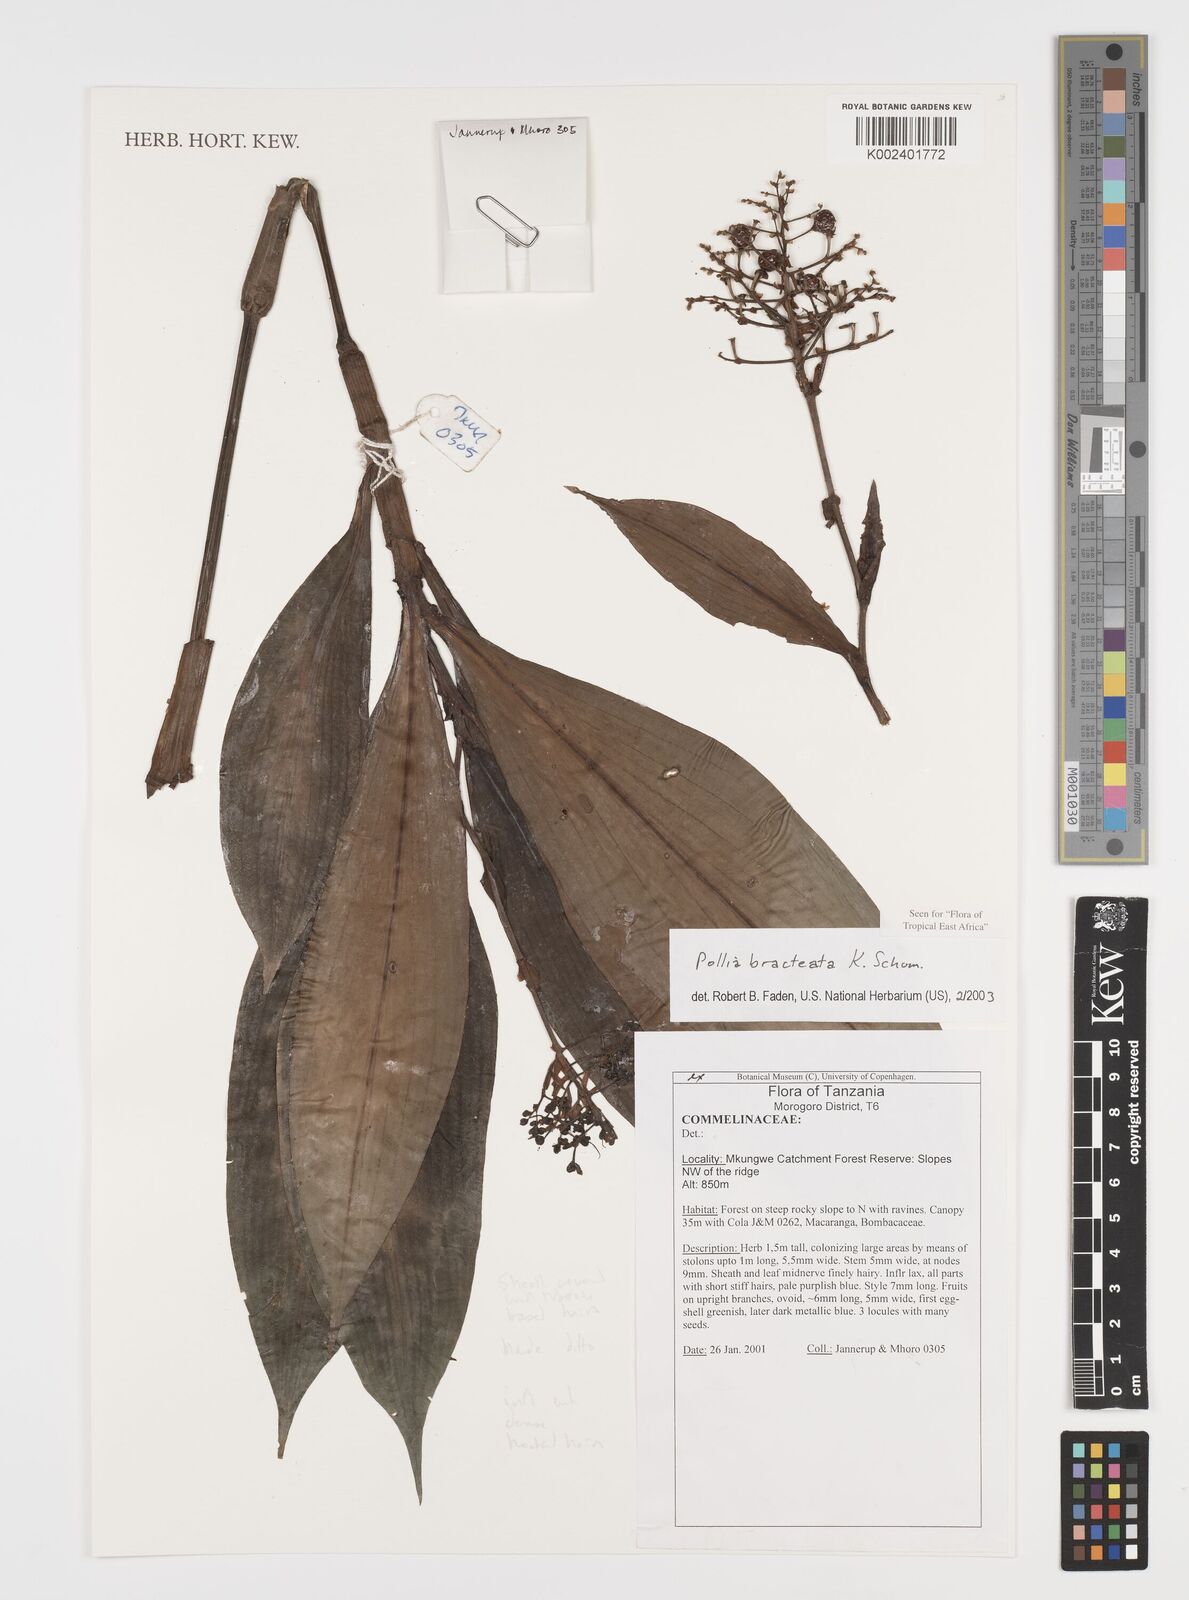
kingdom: Plantae
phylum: Tracheophyta
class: Liliopsida
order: Commelinales
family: Commelinaceae
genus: Pollia
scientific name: Pollia bracteata
